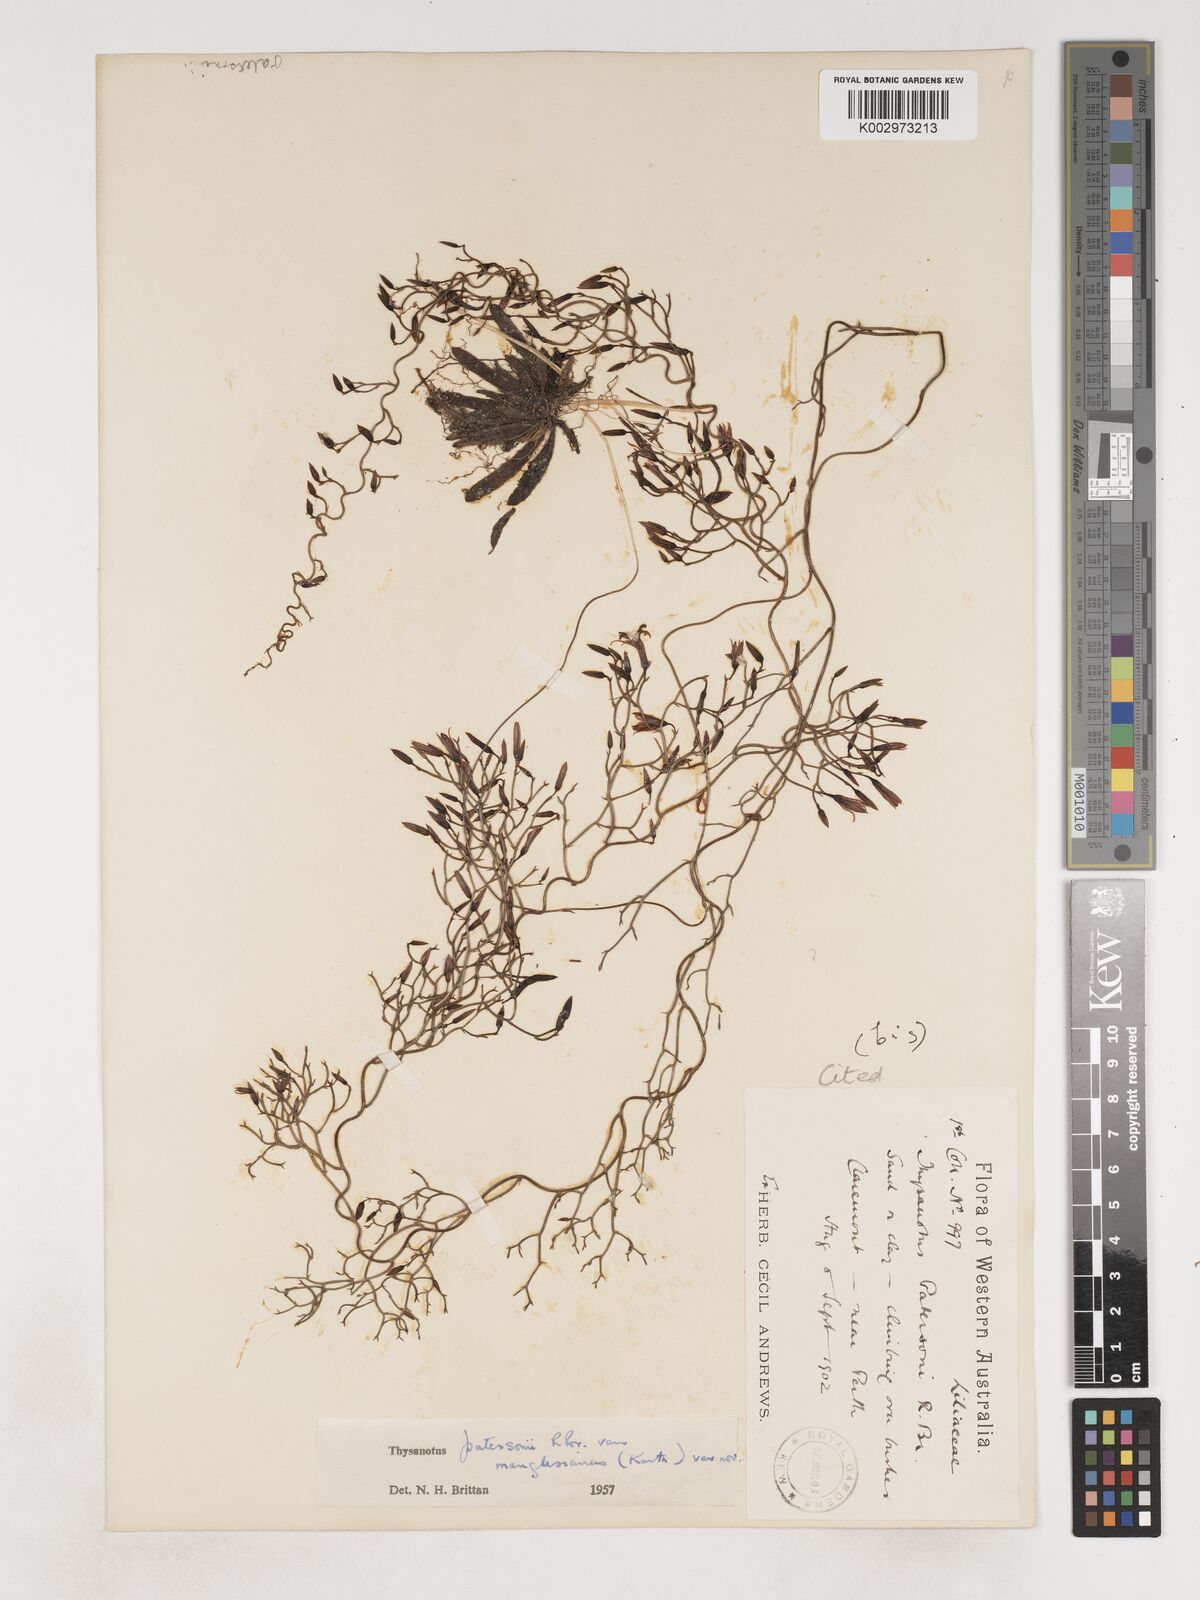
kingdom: Plantae
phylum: Tracheophyta
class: Liliopsida
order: Asparagales
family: Asparagaceae
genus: Thysanotus
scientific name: Thysanotus manglesianus
